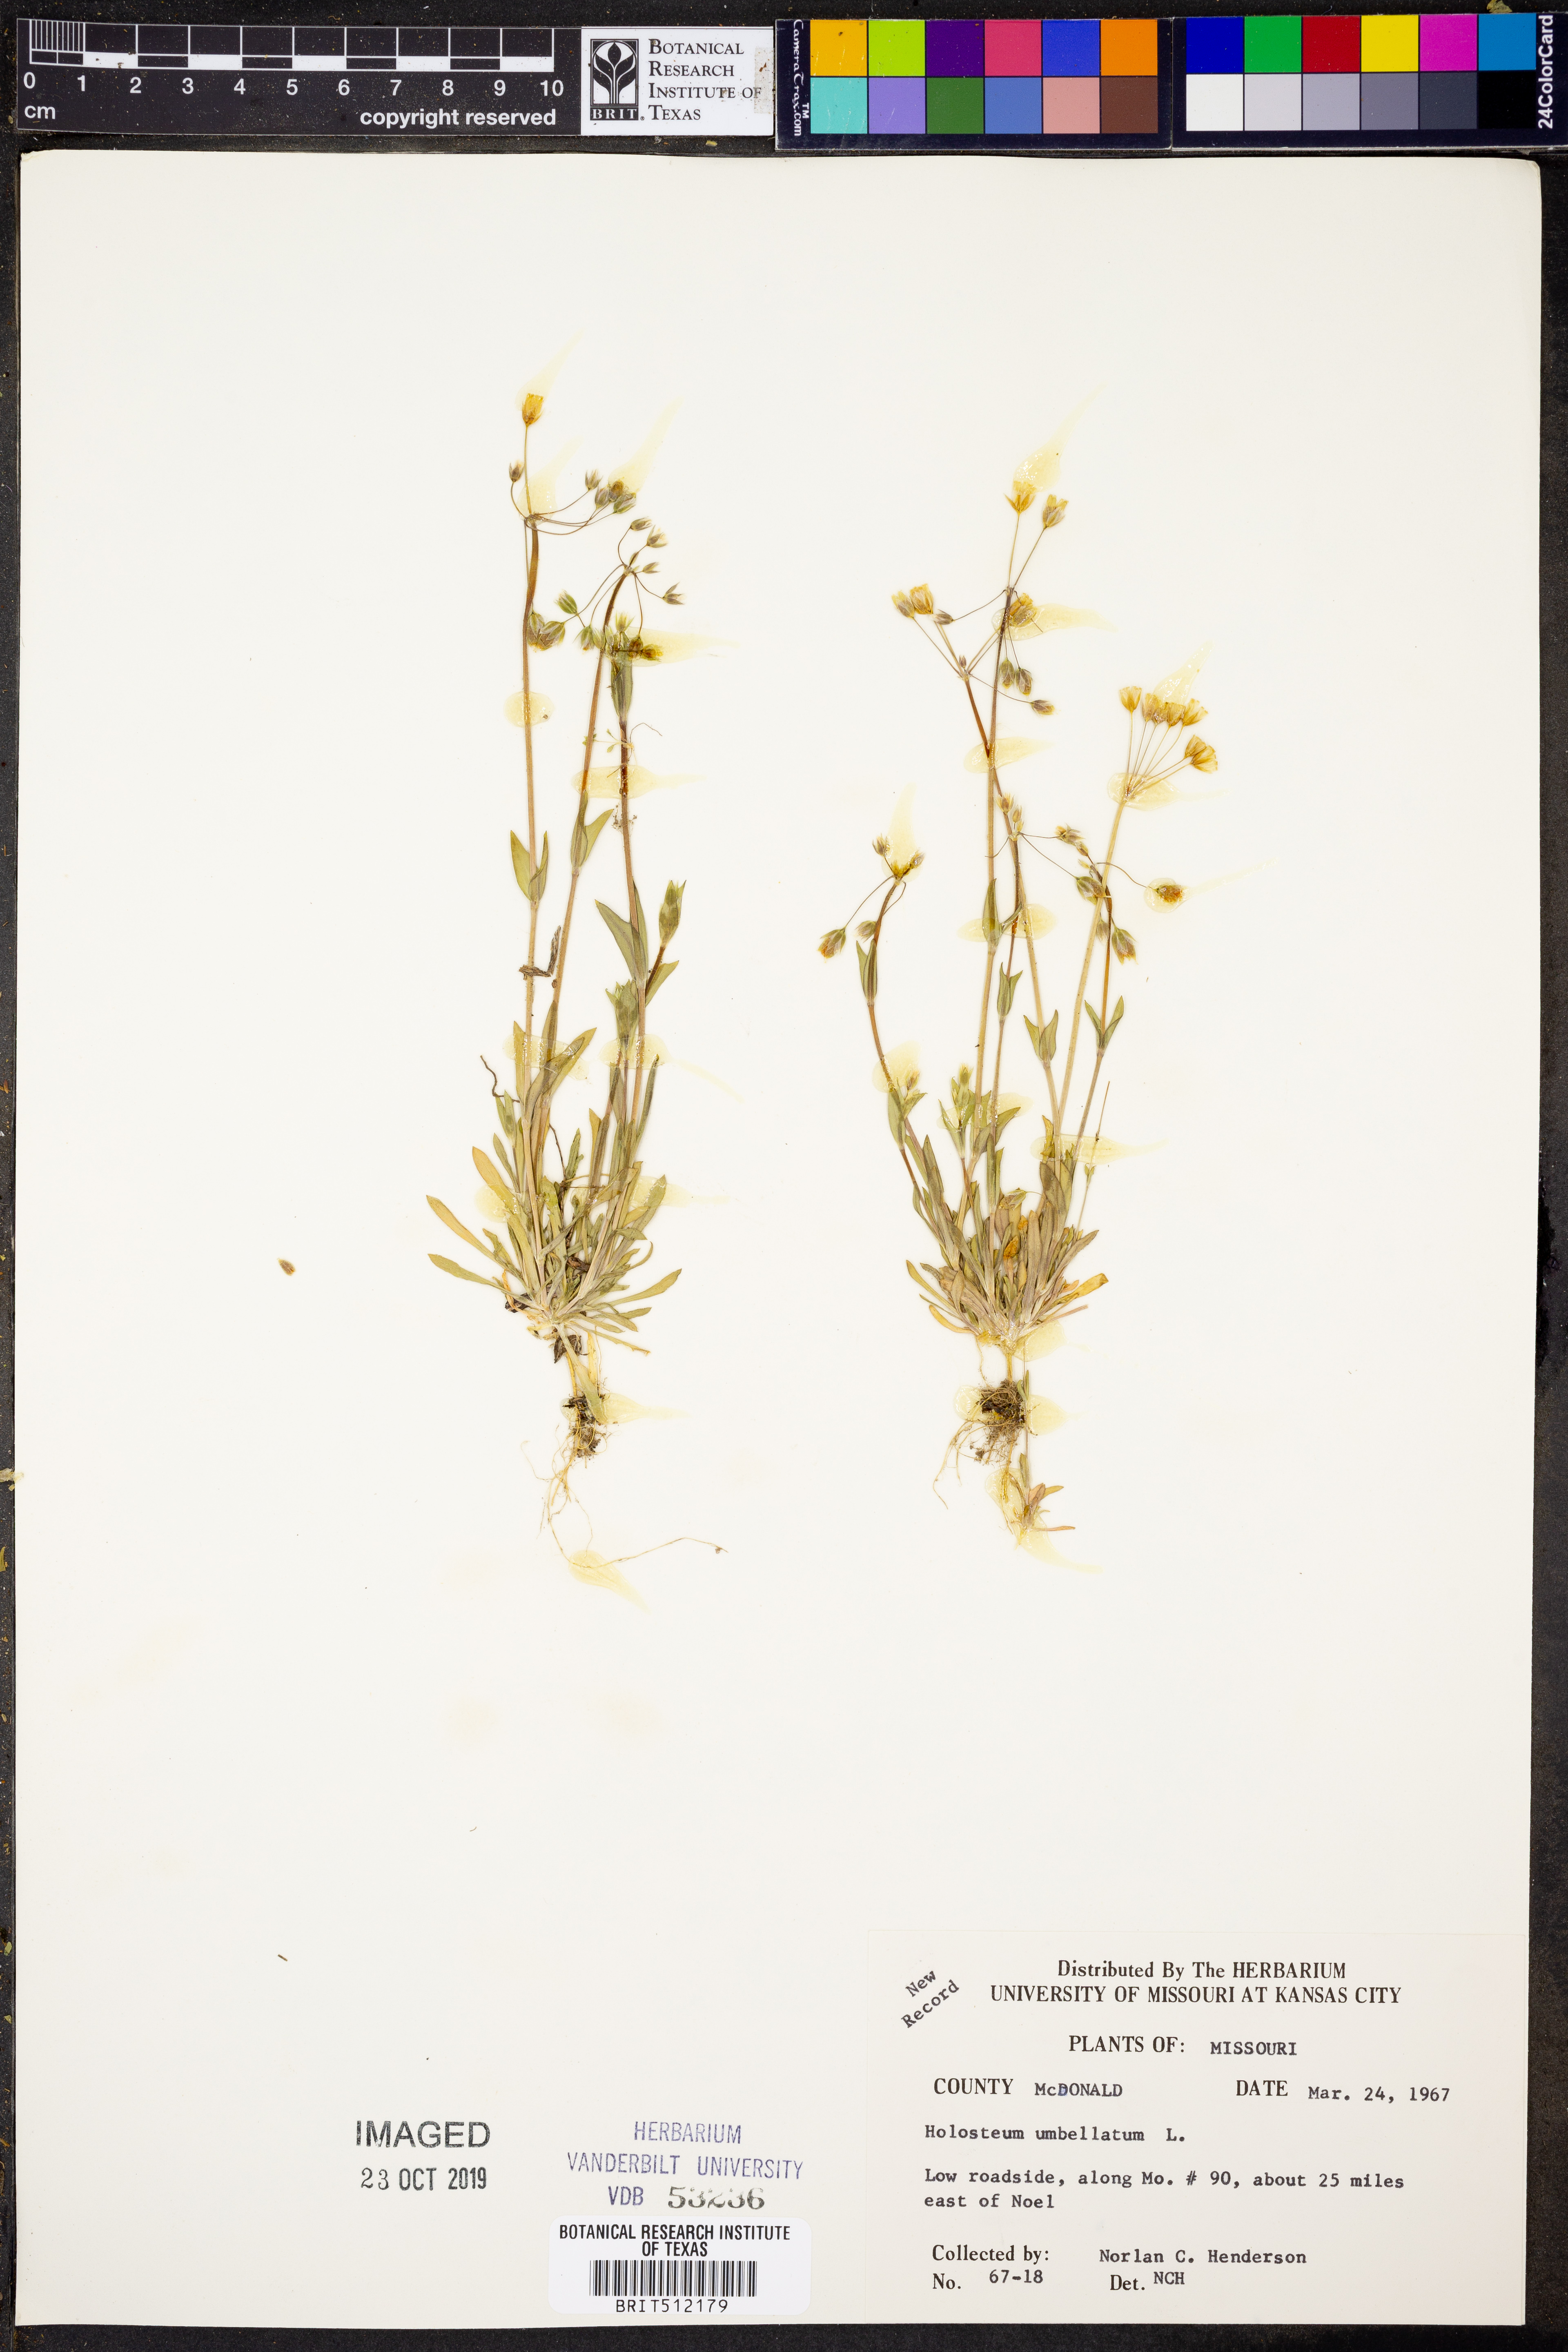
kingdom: Plantae
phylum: Tracheophyta
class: Magnoliopsida
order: Caryophyllales
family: Caryophyllaceae
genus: Holosteum
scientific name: Holosteum umbellatum
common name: Jagged chickweed
